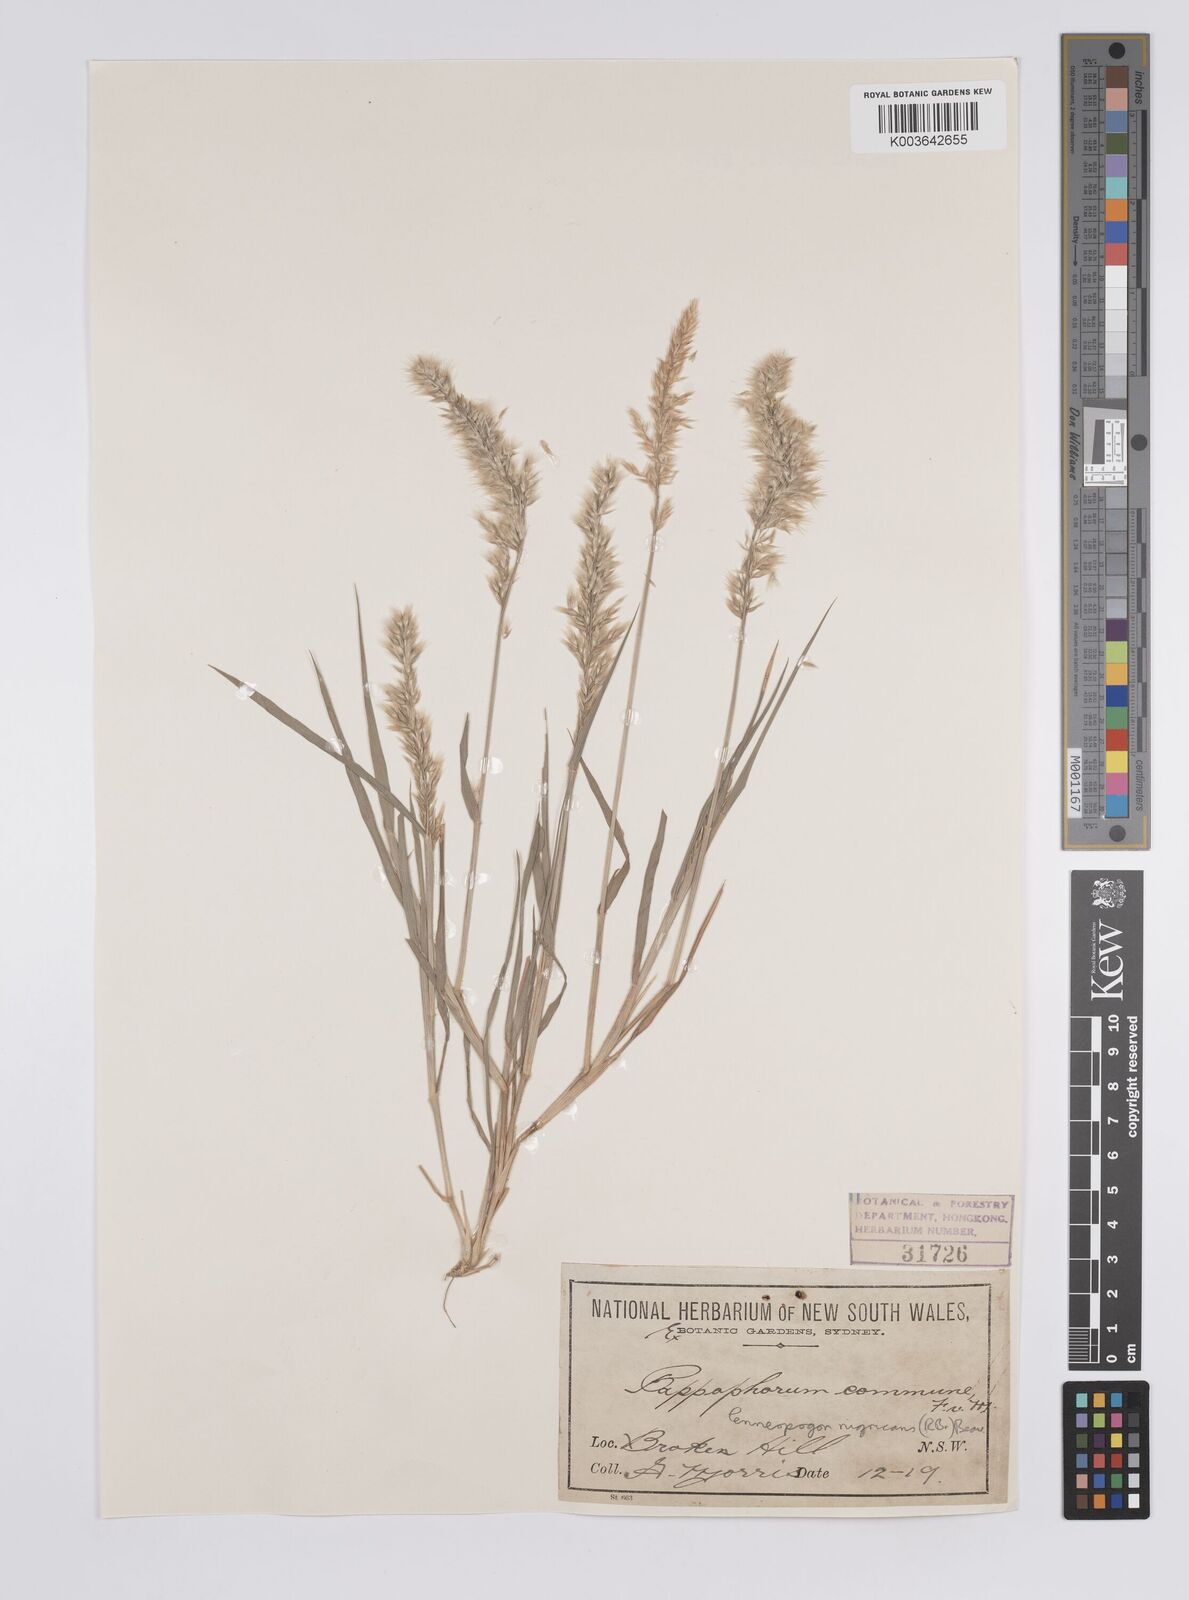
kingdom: Plantae
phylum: Tracheophyta
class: Liliopsida
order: Poales
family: Poaceae
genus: Enneapogon
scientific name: Enneapogon nigricans
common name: Pappus grass
